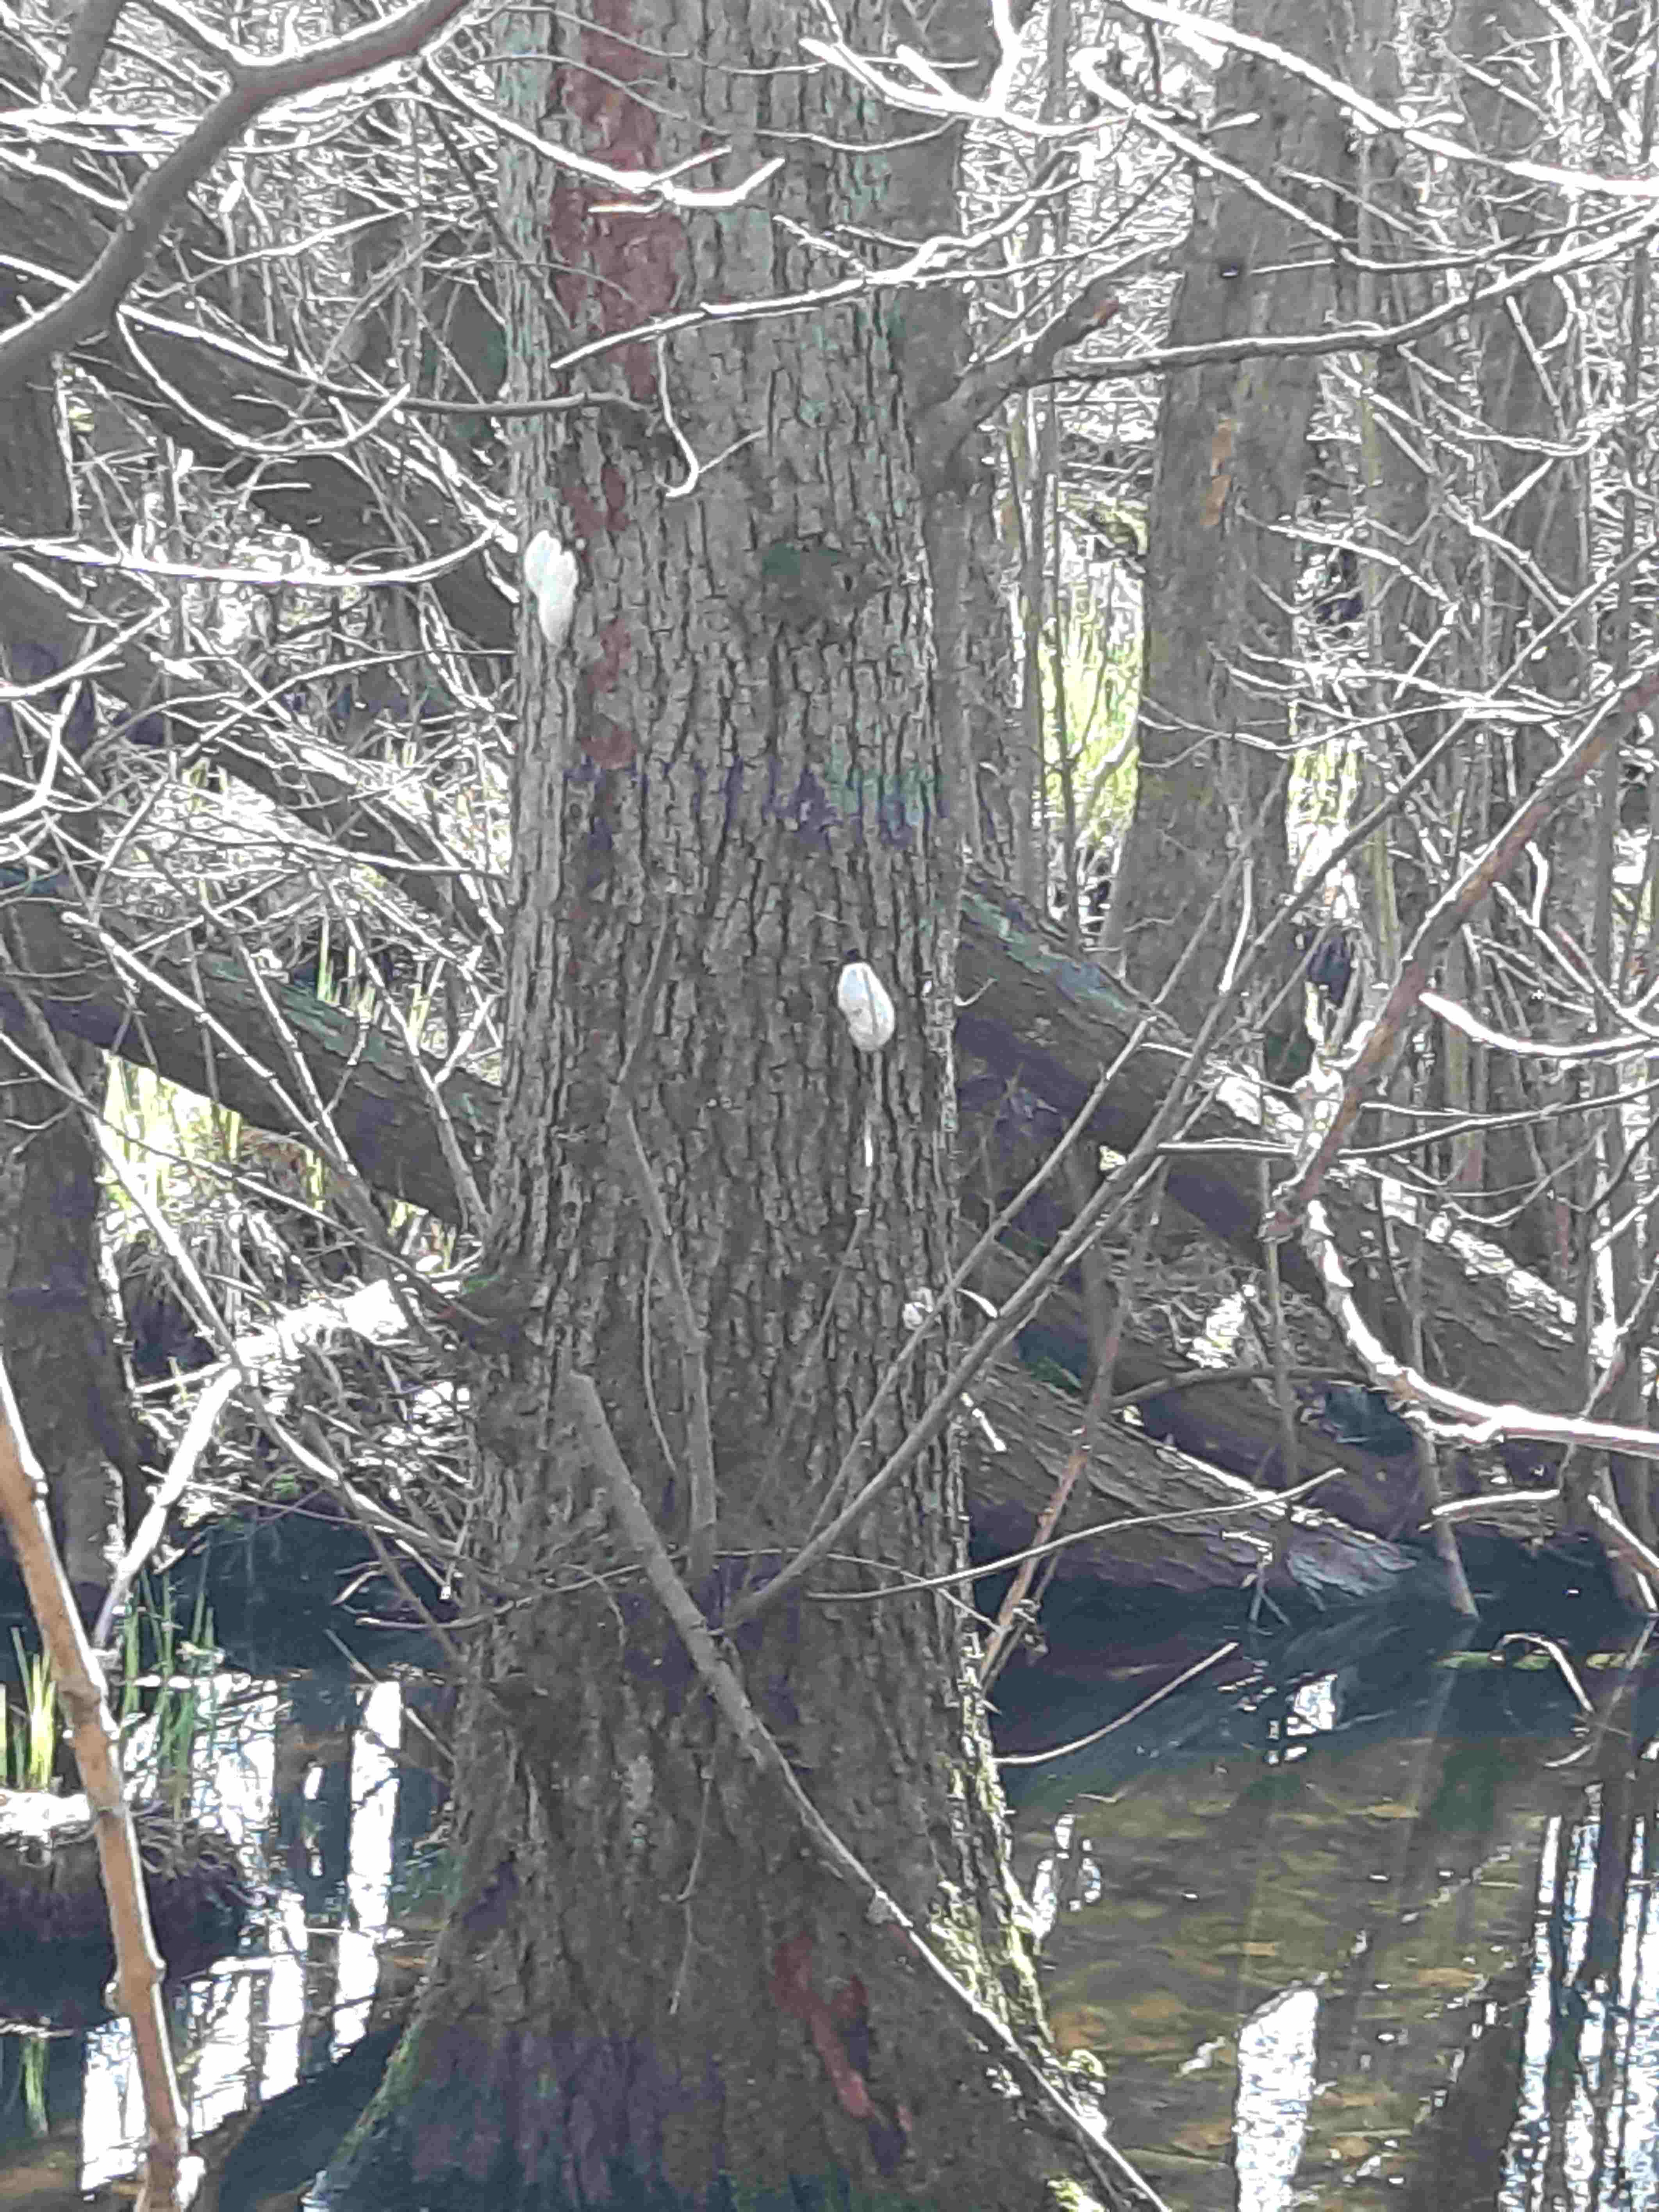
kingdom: Protozoa
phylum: Mycetozoa
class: Myxomycetes
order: Cribrariales
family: Tubiferaceae
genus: Reticularia
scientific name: Reticularia lycoperdon
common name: skinnende støvpude
